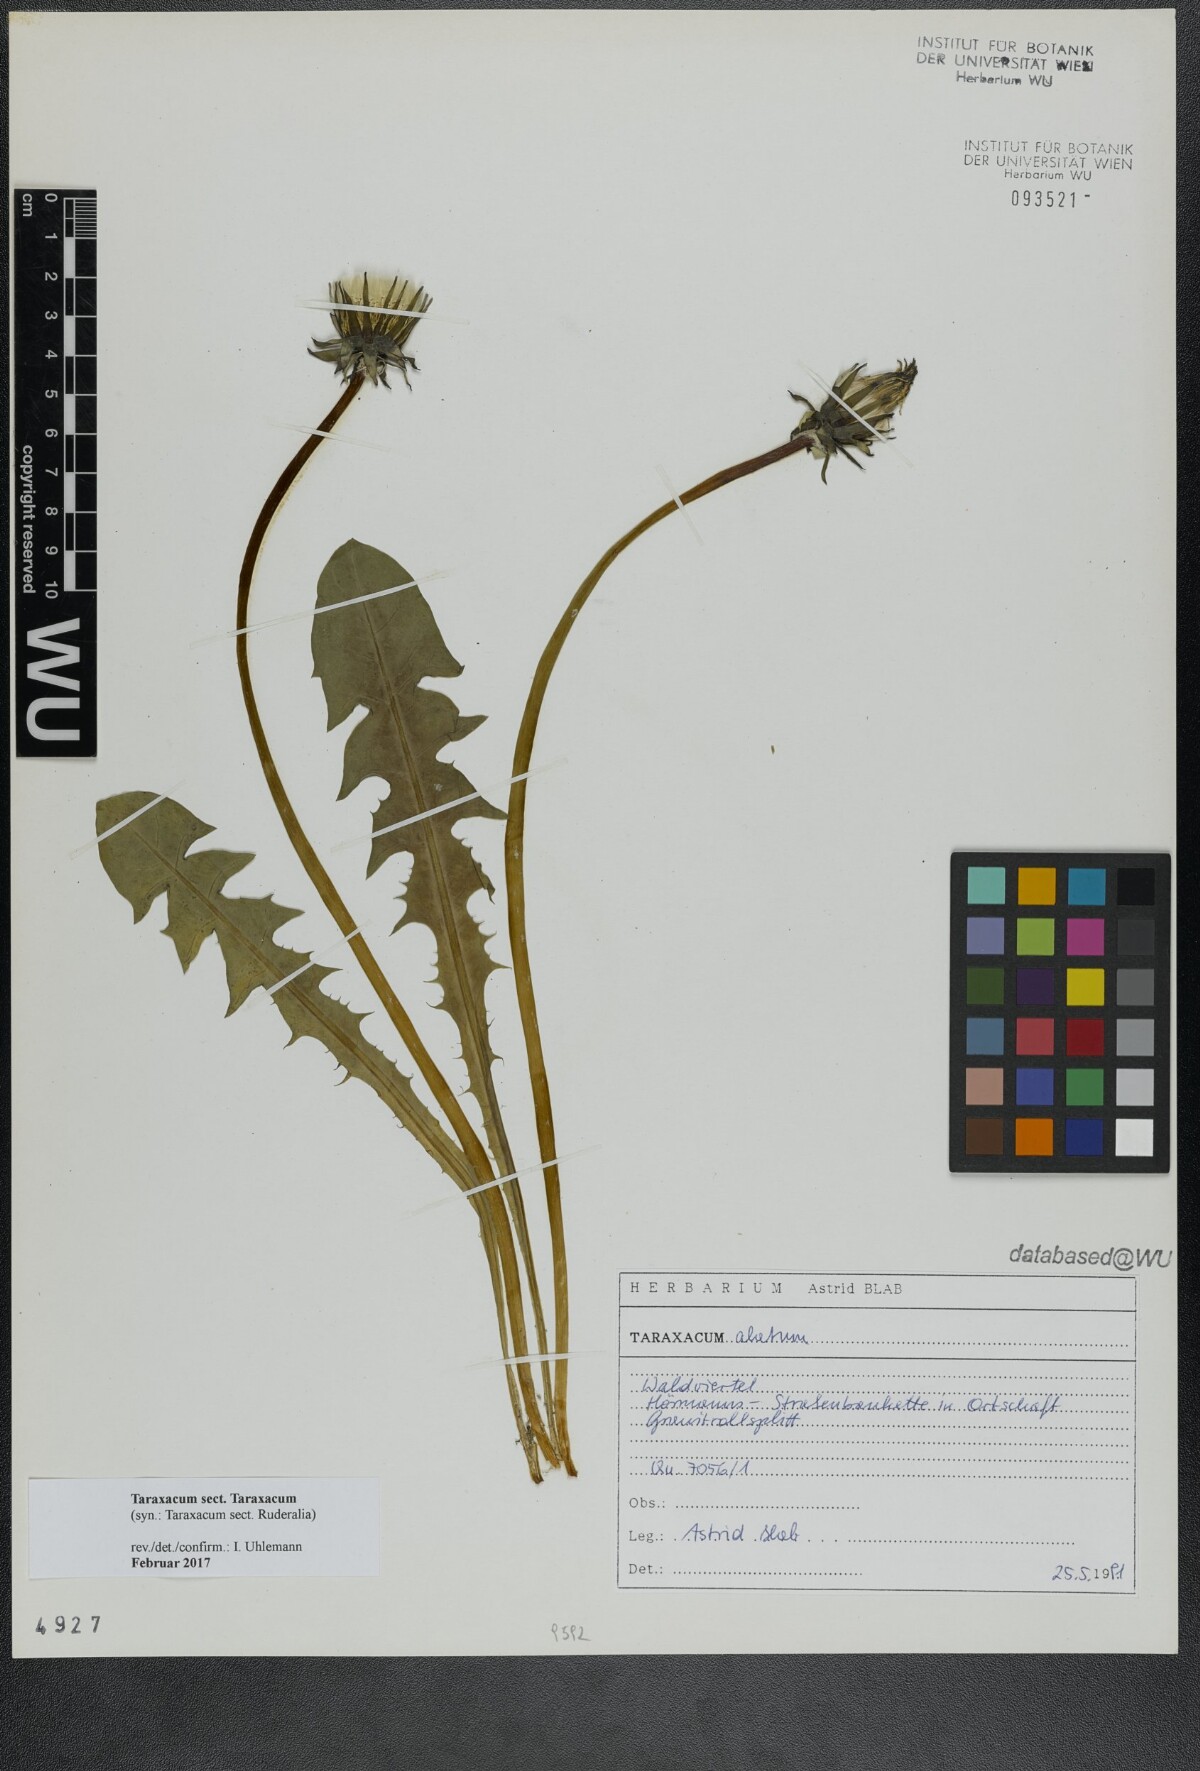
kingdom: Plantae
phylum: Tracheophyta
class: Magnoliopsida
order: Asterales
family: Asteraceae
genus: Taraxacum
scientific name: Taraxacum
